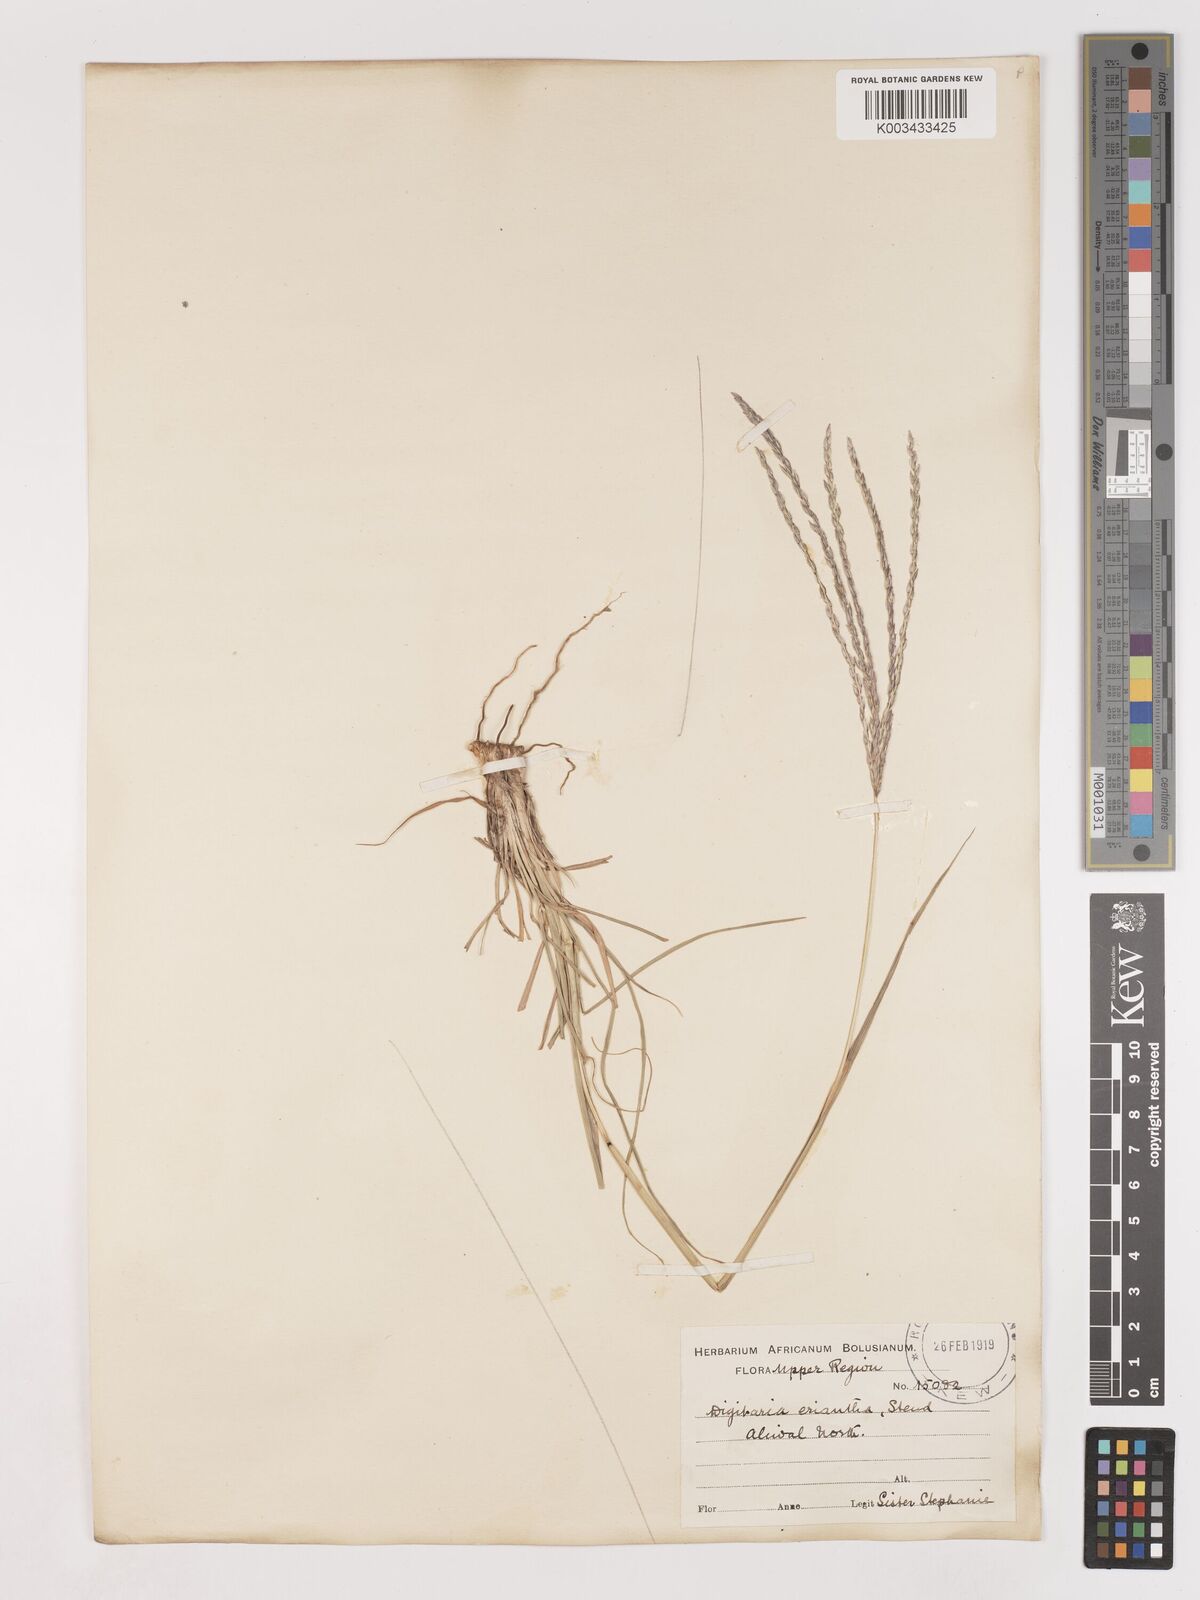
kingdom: Plantae
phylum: Tracheophyta
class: Liliopsida
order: Poales
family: Poaceae
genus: Digitaria
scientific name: Digitaria eriantha
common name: Digitgrass
